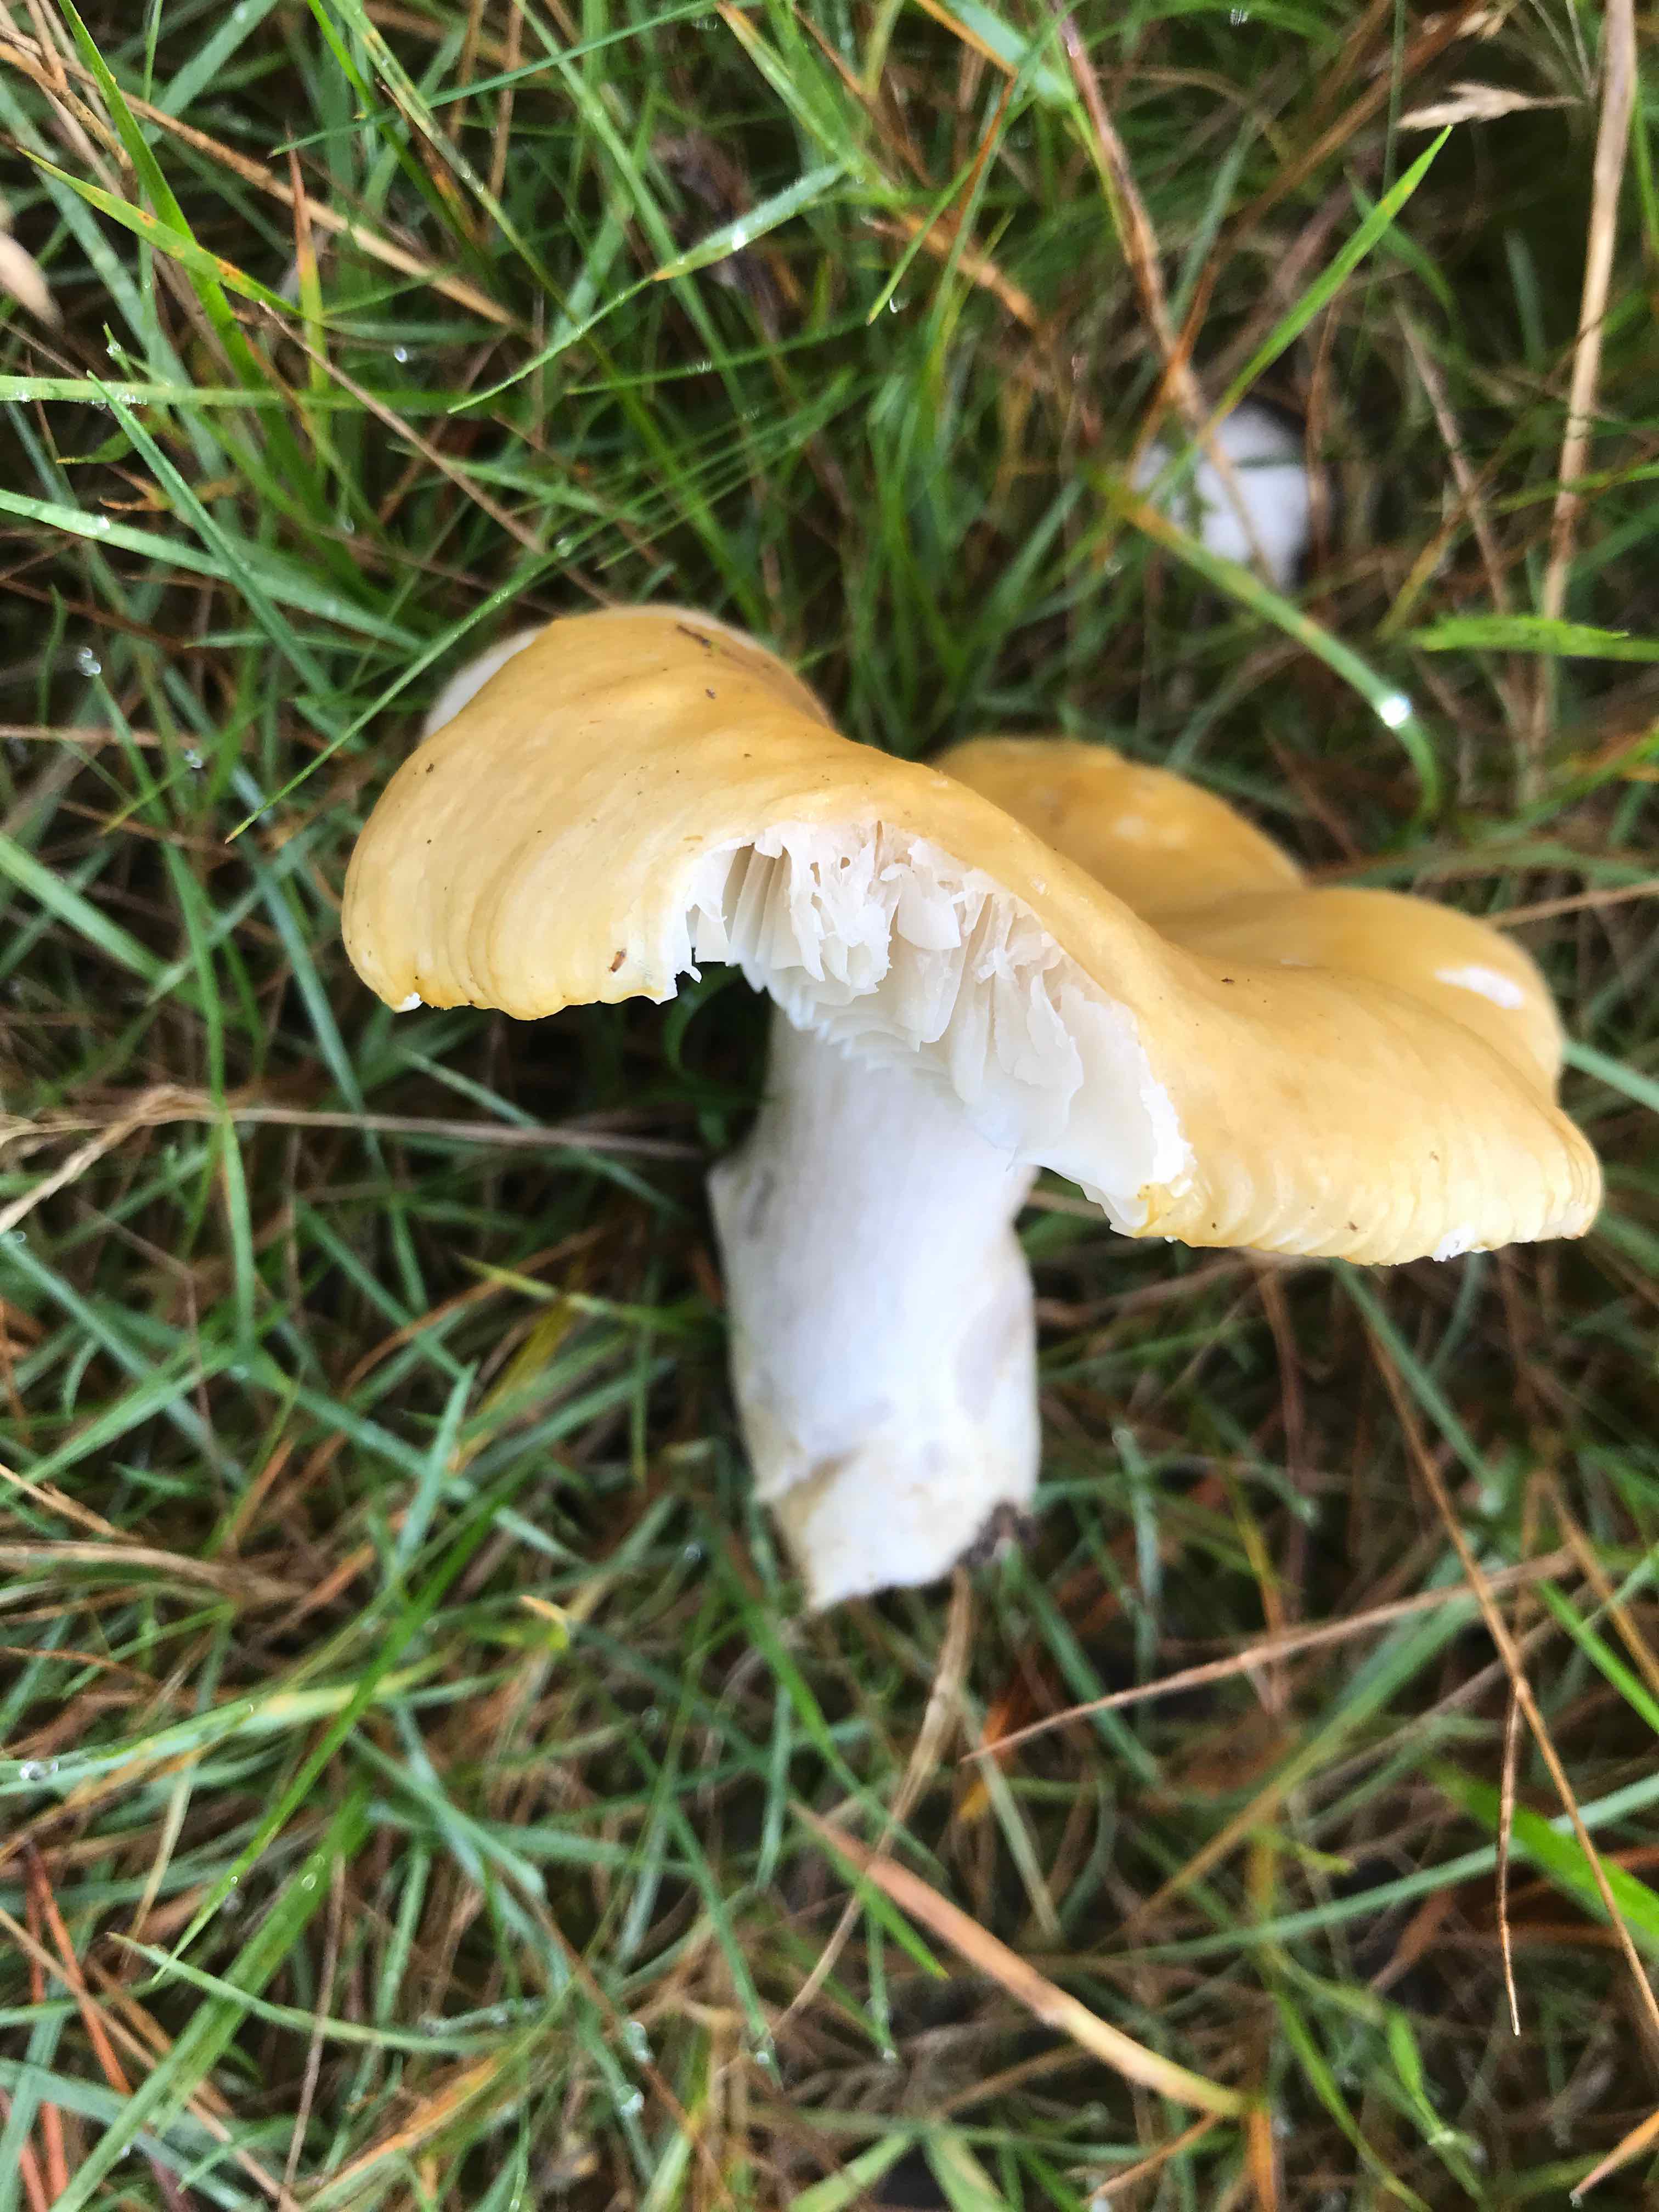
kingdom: Fungi
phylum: Basidiomycota
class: Agaricomycetes
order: Russulales
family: Russulaceae
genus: Russula
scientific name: Russula ochroleuca
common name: okkergul skørhat
